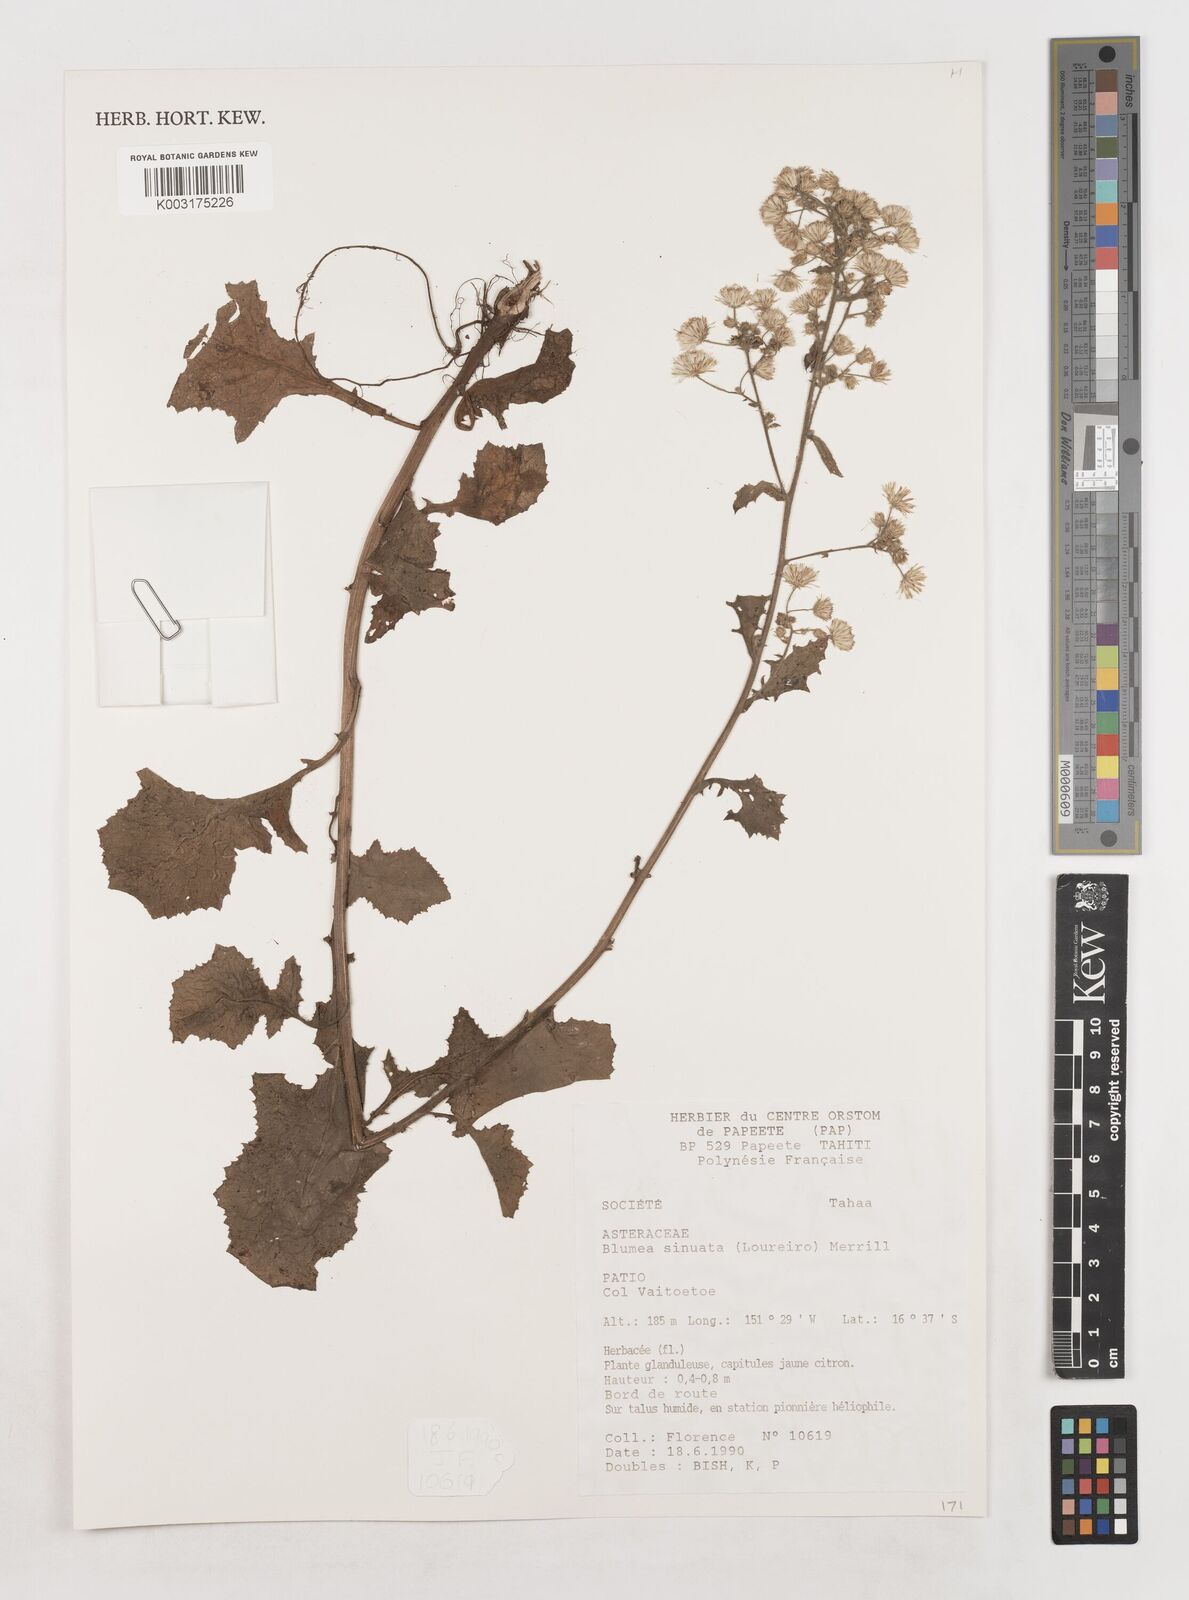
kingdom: Plantae
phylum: Tracheophyta
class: Magnoliopsida
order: Asterales
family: Asteraceae
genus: Blumea
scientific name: Blumea sinuata
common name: Cutleaf false oxtongue
